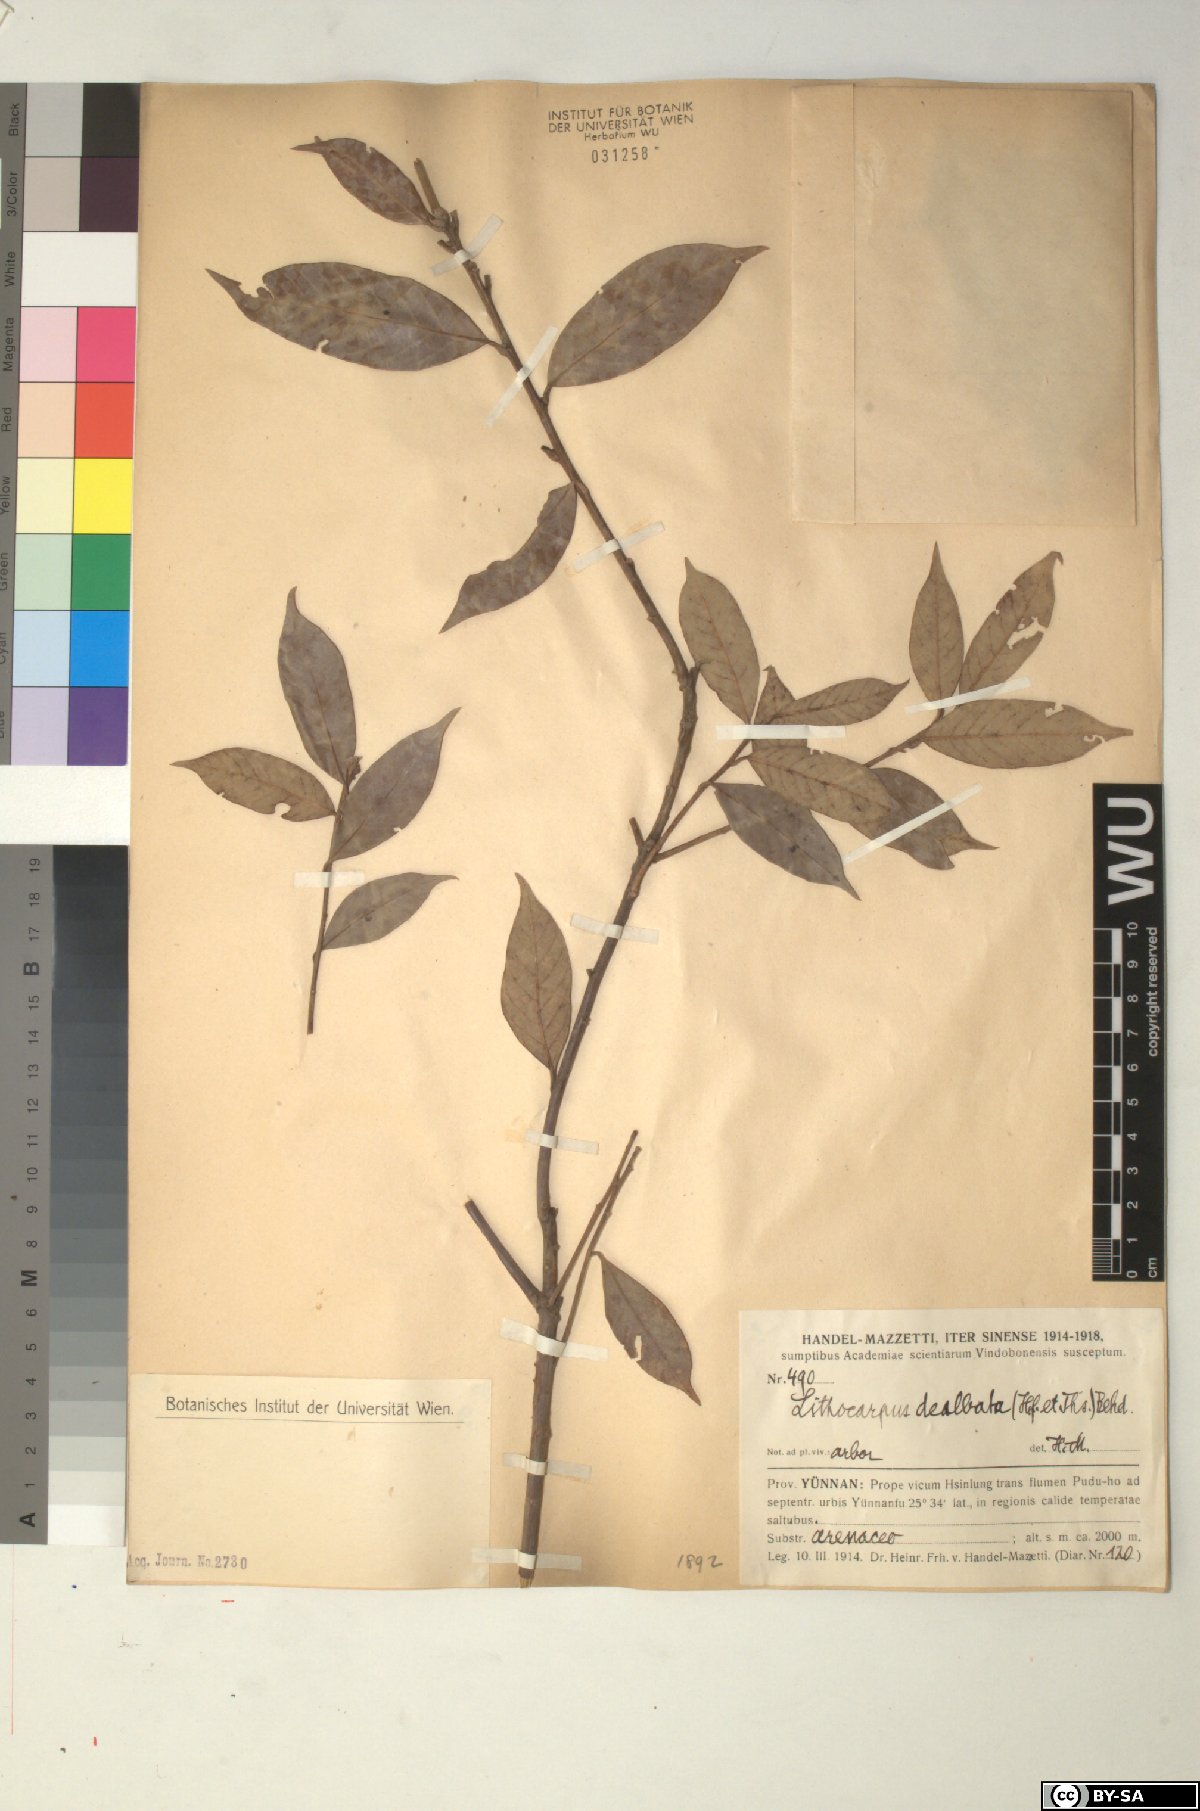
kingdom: Plantae
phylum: Tracheophyta
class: Magnoliopsida
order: Fagales
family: Fagaceae
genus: Lithocarpus
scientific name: Lithocarpus dealbatus
